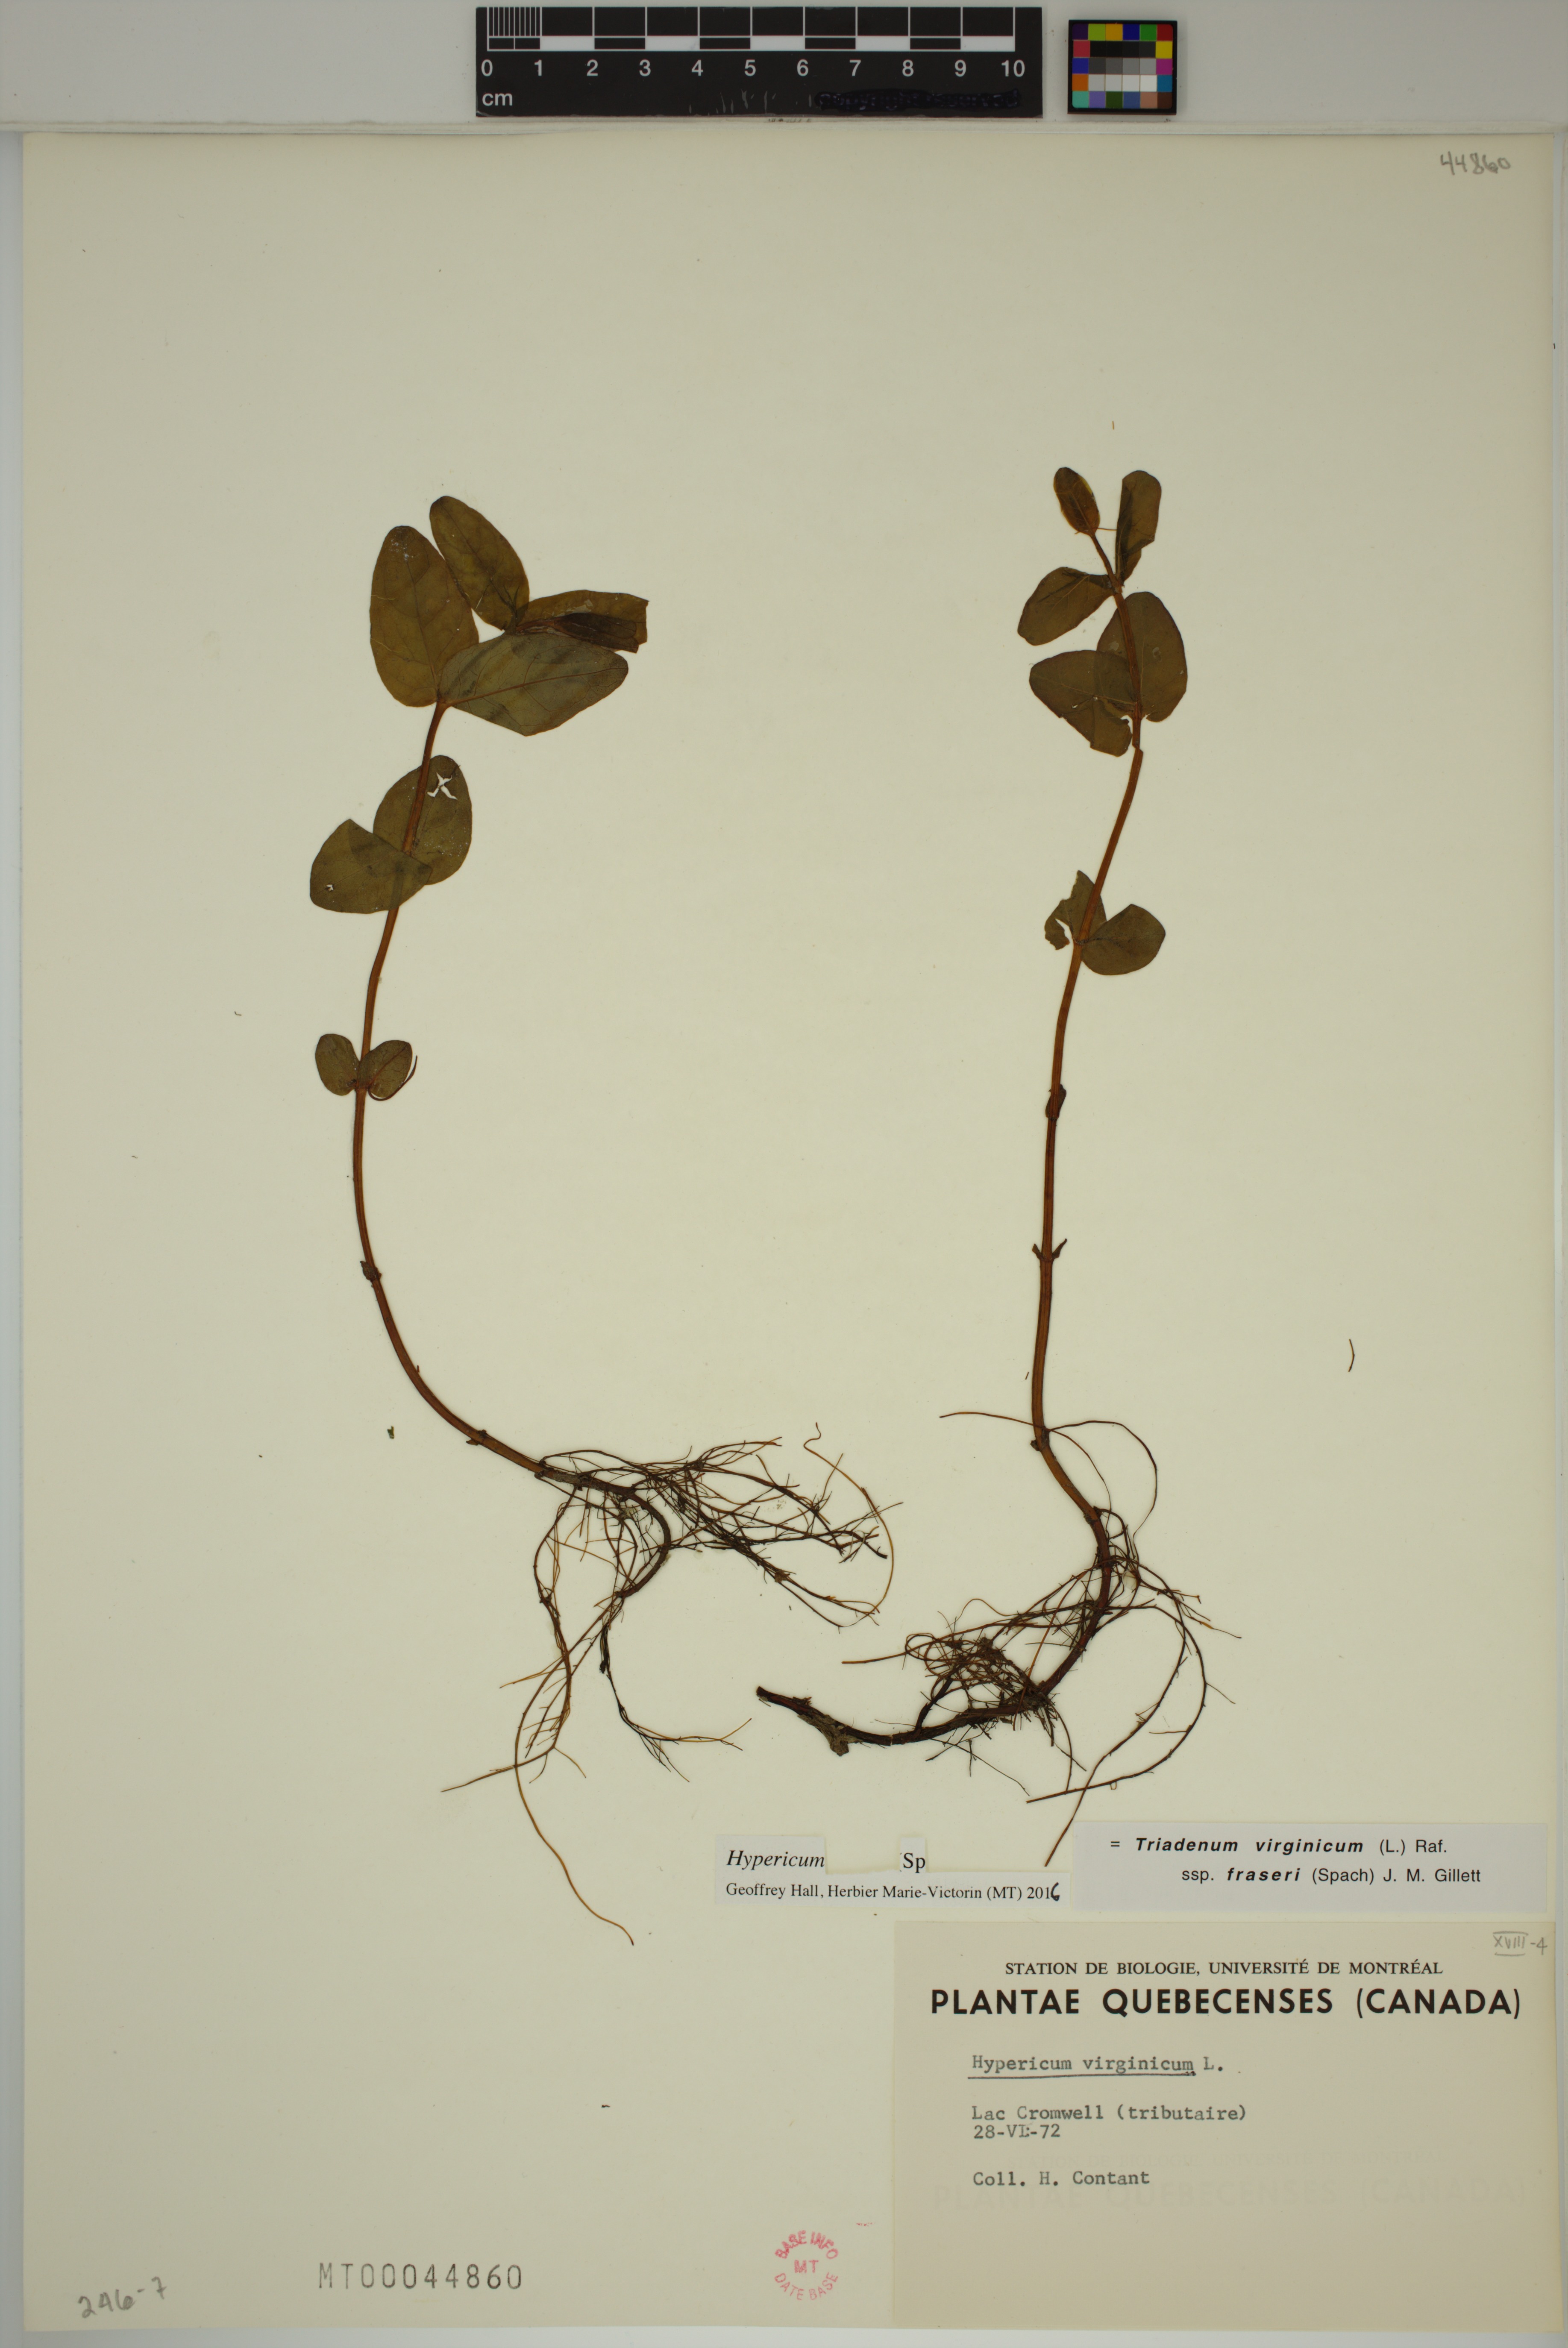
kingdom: Plantae
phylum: Tracheophyta
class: Magnoliopsida
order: Malpighiales
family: Hypericaceae
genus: Hypericum
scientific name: Hypericum
